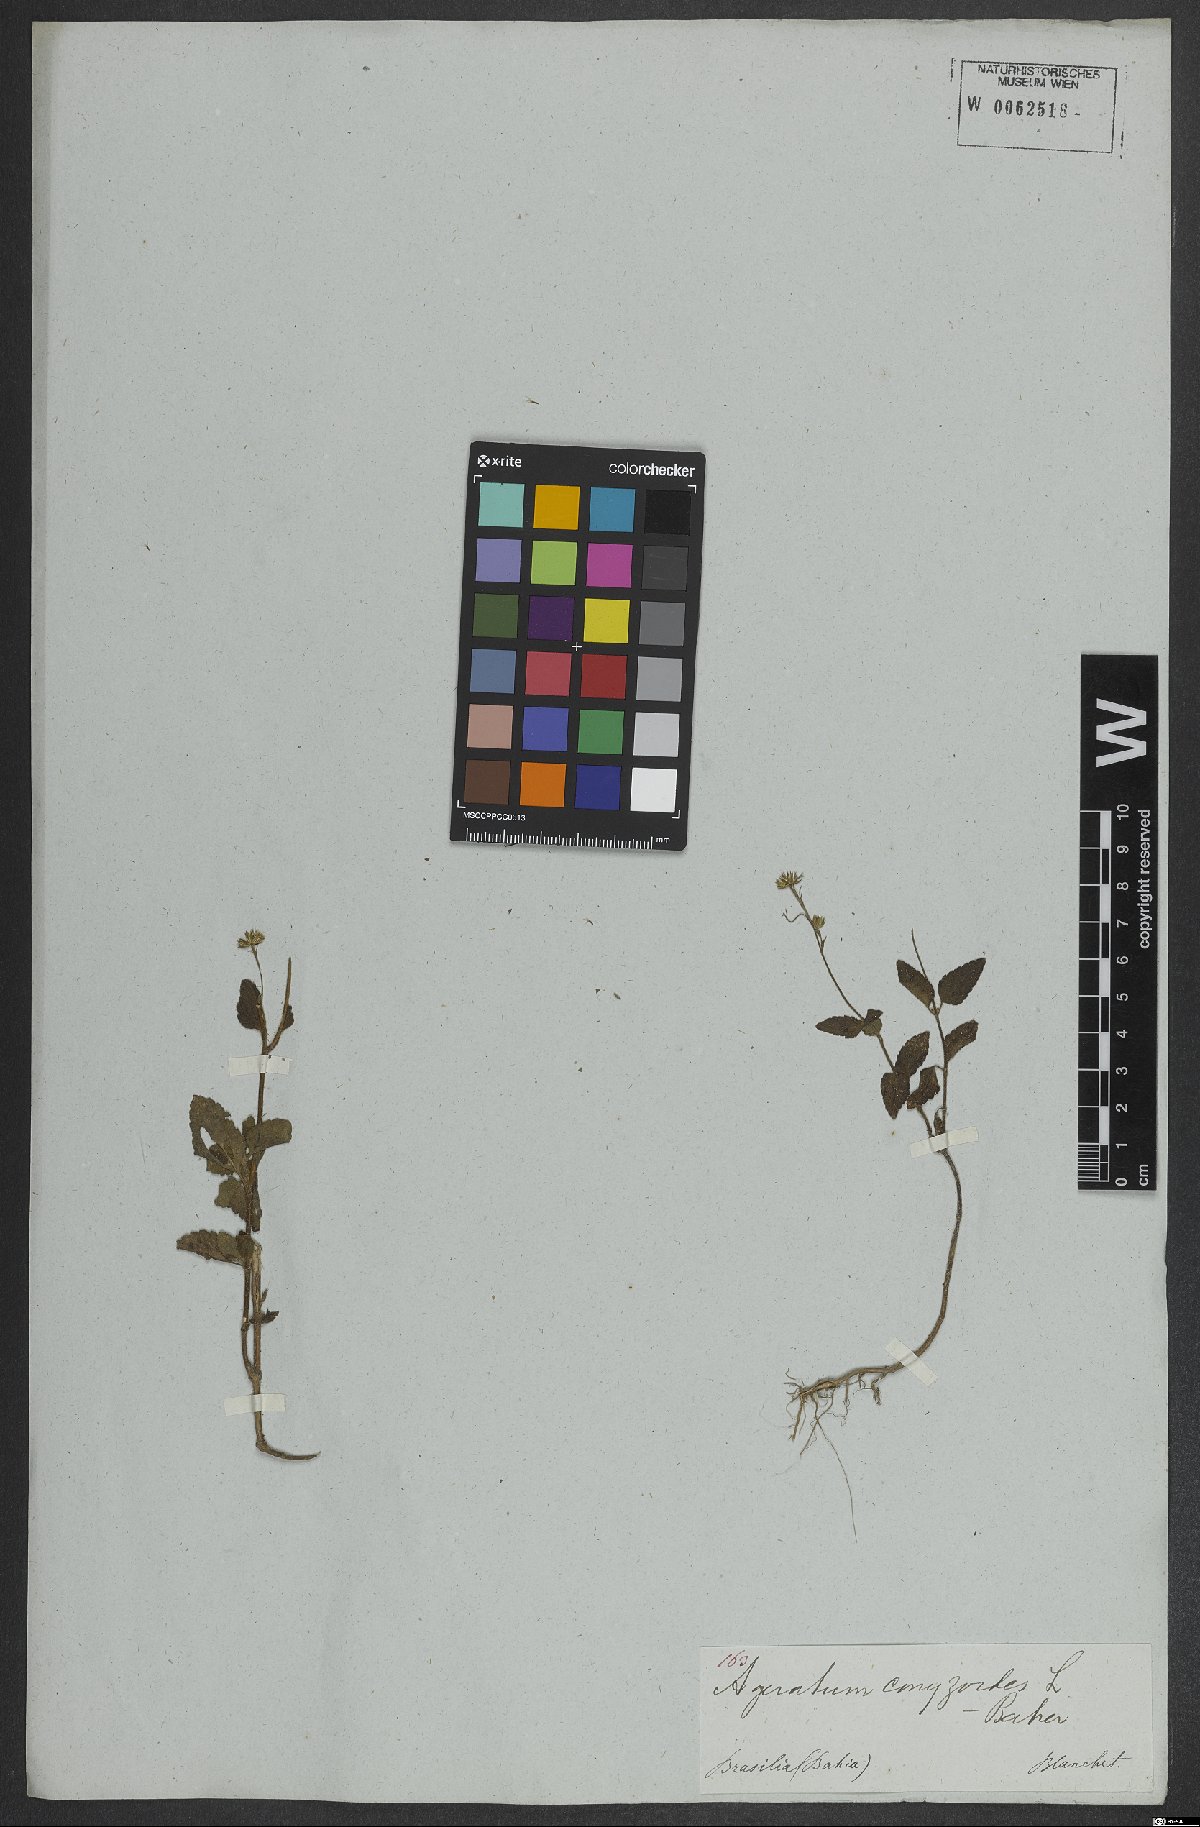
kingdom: Plantae
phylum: Tracheophyta
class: Magnoliopsida
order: Asterales
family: Asteraceae
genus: Ageratum
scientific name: Ageratum conyzoides
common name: Tropical whiteweed
